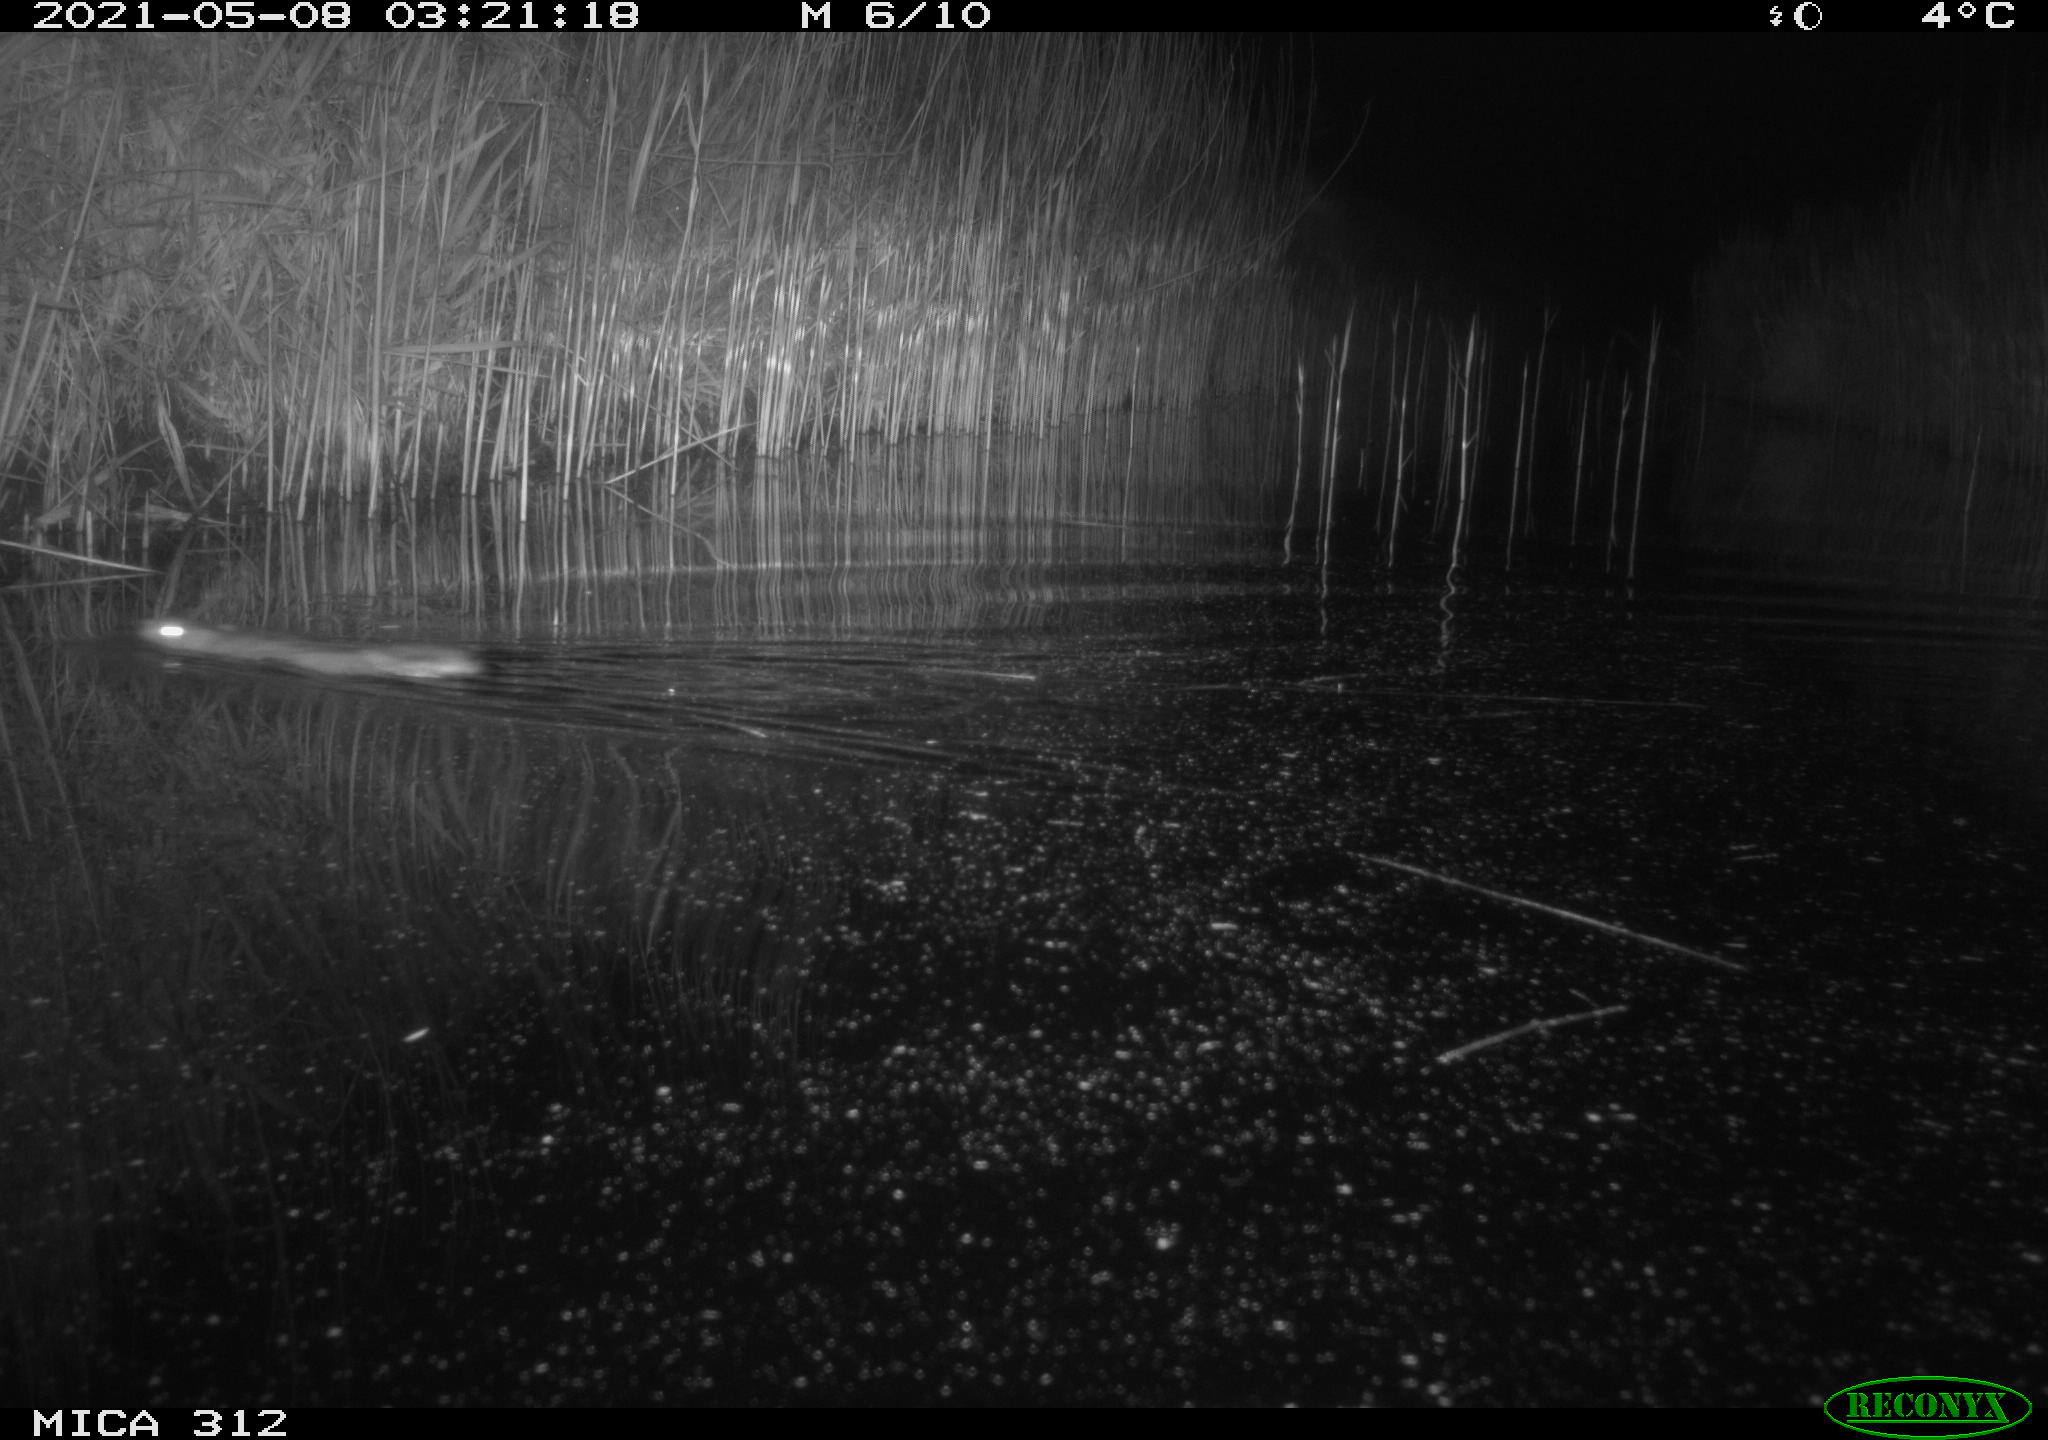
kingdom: Animalia
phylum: Chordata
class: Mammalia
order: Rodentia
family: Cricetidae
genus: Ondatra
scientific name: Ondatra zibethicus
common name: Muskrat
